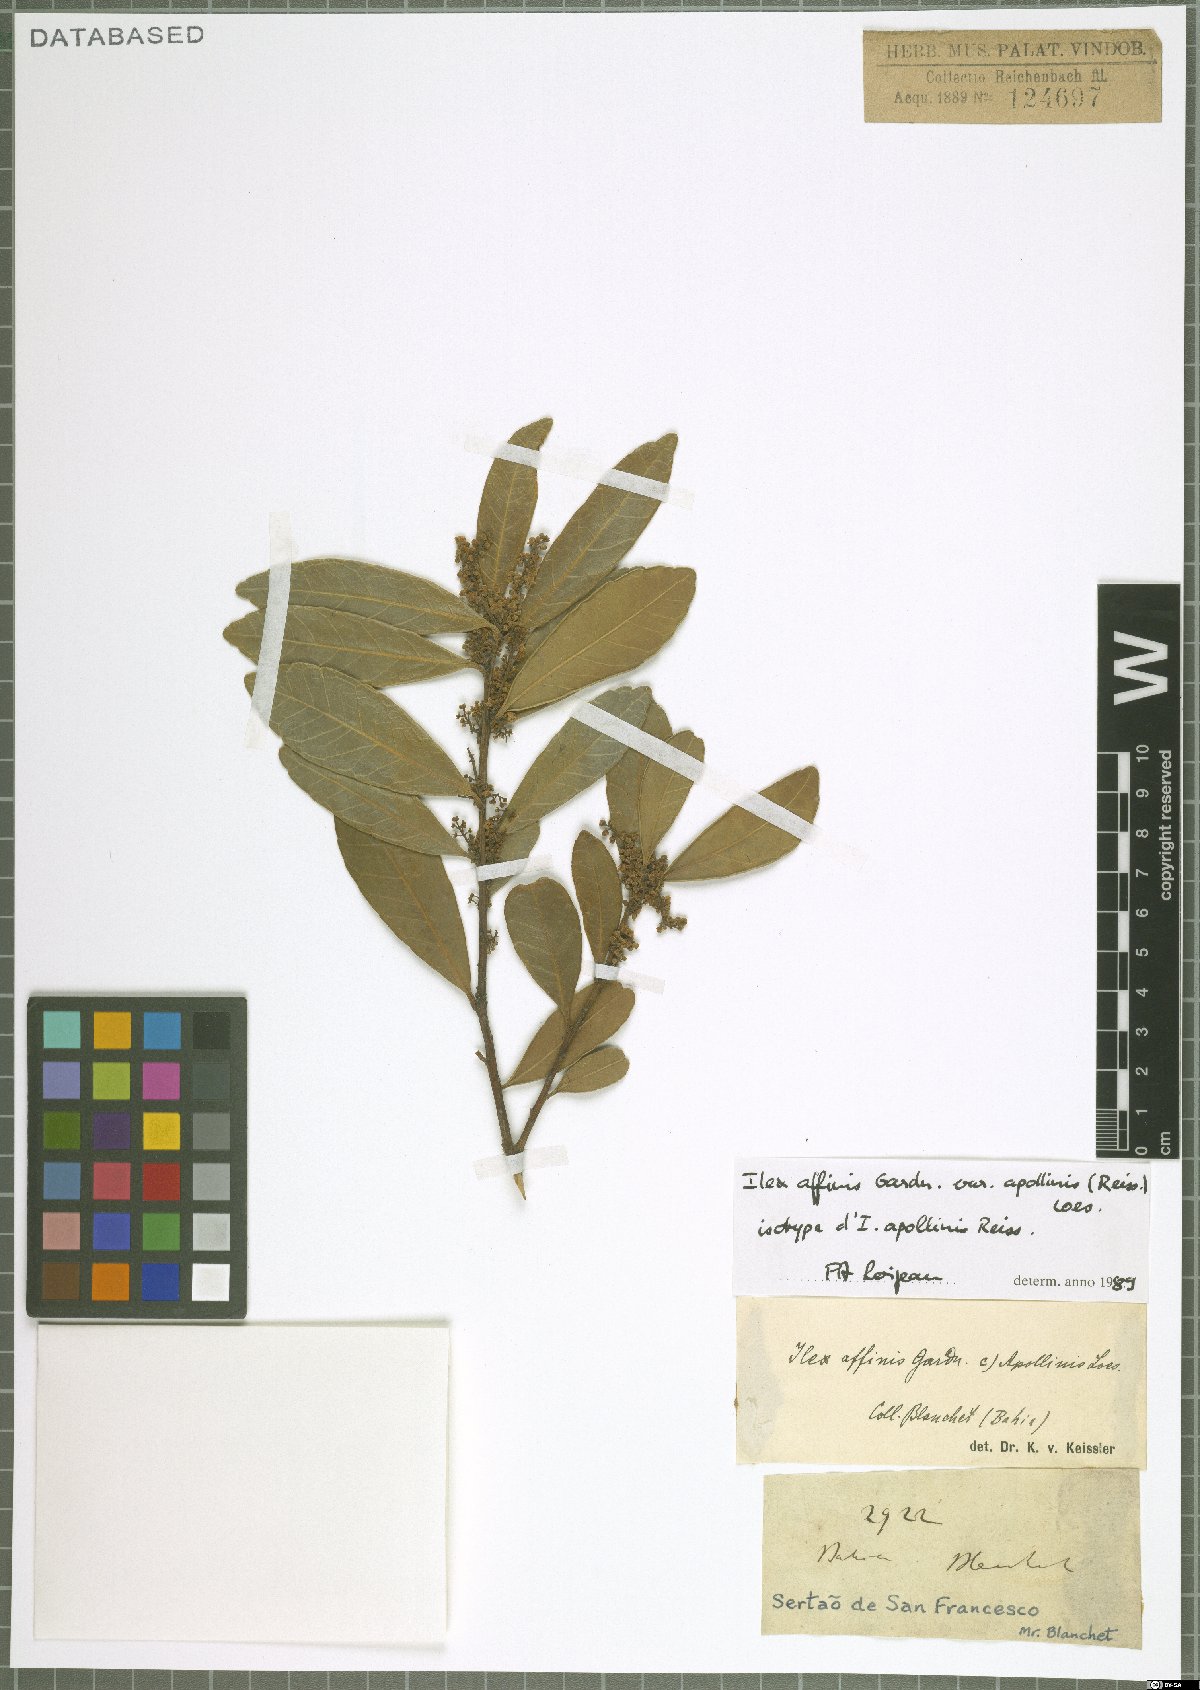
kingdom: Plantae
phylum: Tracheophyta
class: Magnoliopsida
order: Aquifoliales
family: Aquifoliaceae
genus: Ilex
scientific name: Ilex affinis
